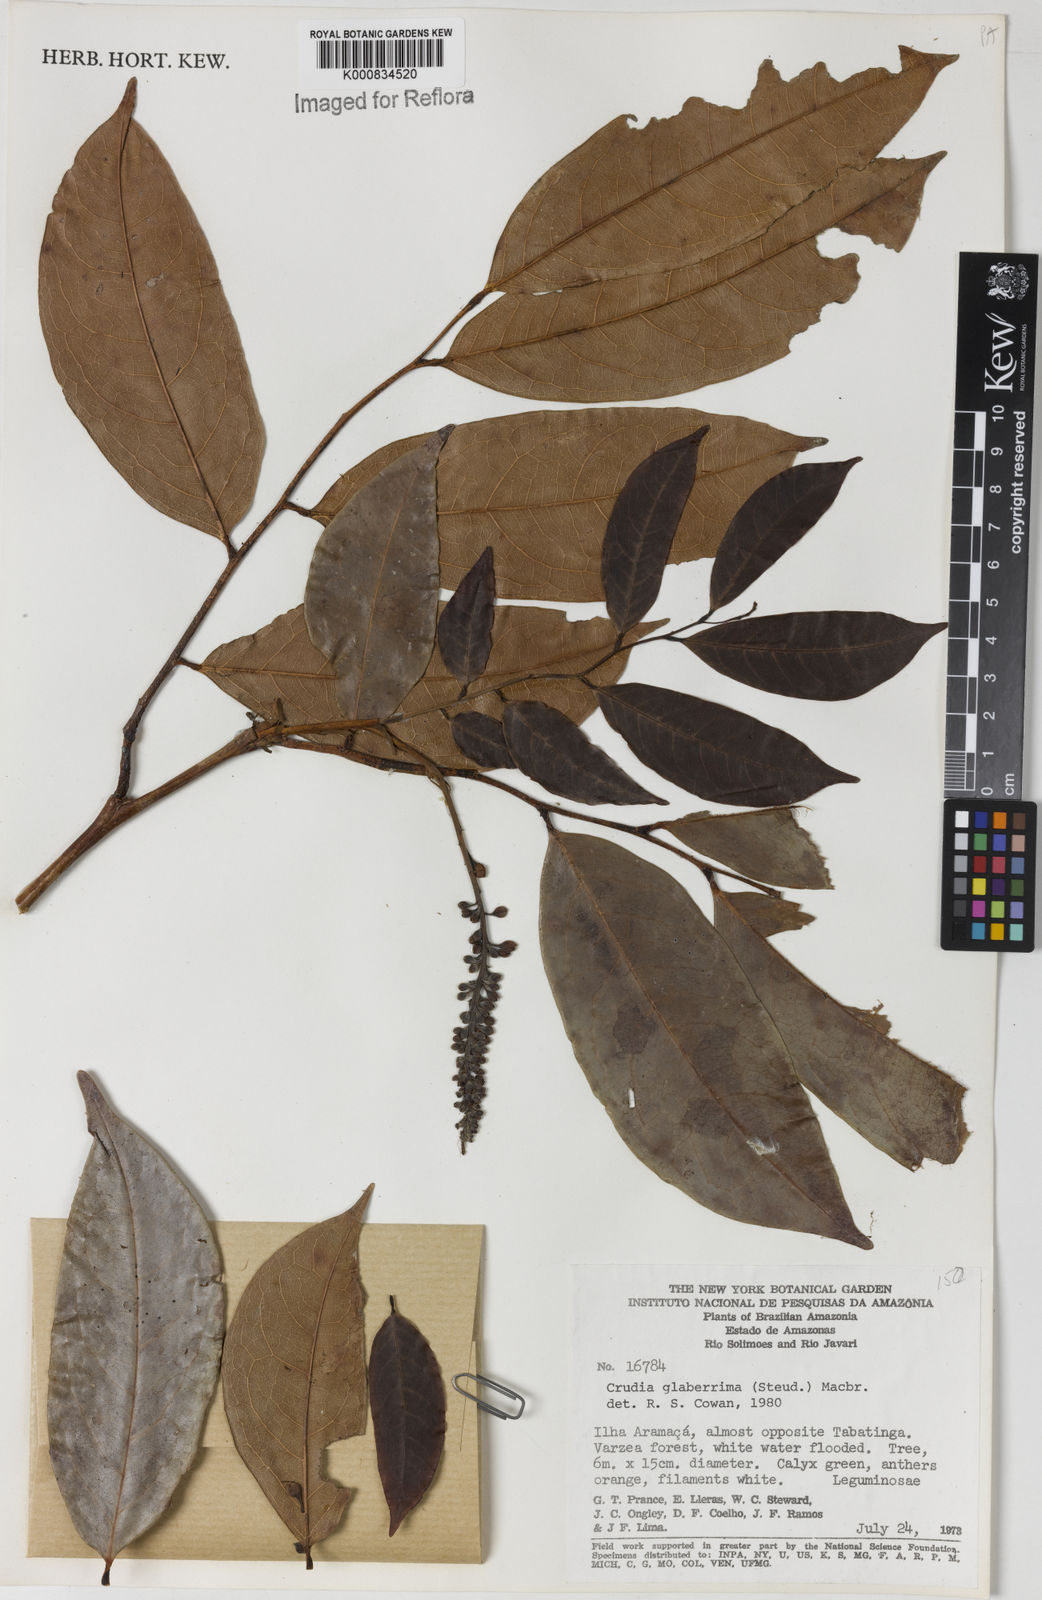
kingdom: Plantae
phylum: Tracheophyta
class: Magnoliopsida
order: Fabales
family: Fabaceae
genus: Crudia
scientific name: Crudia glaberrima
